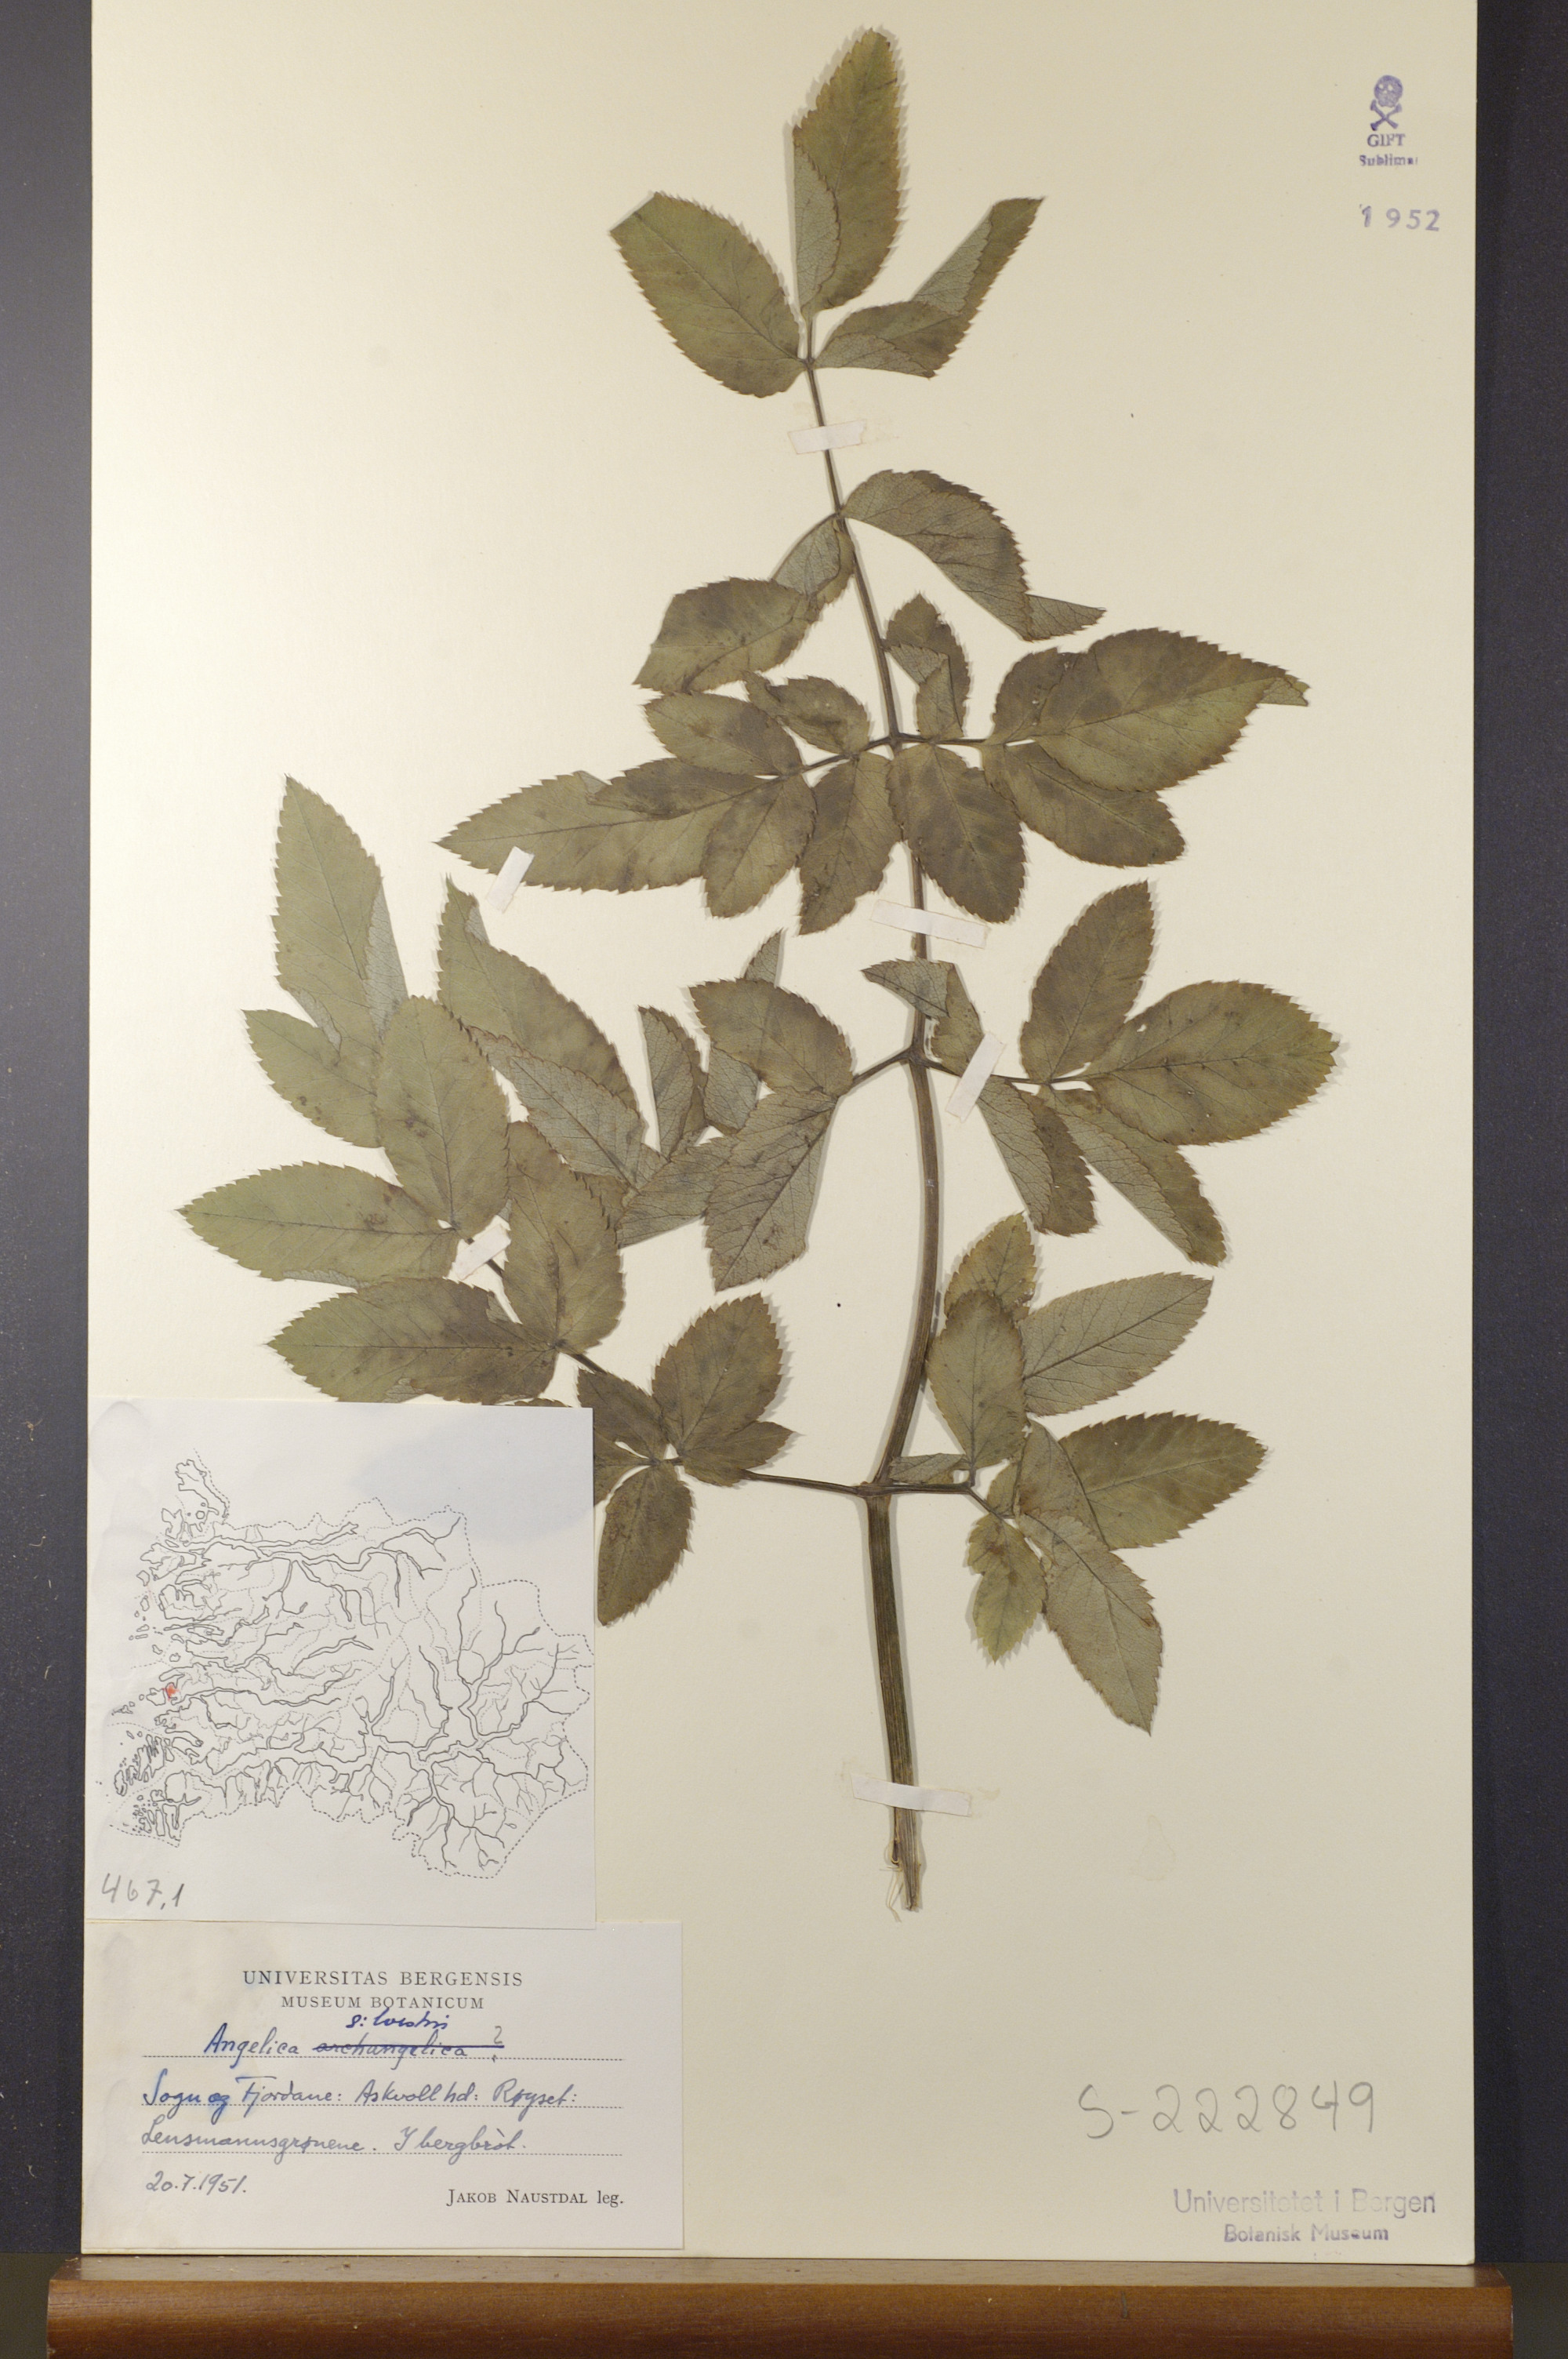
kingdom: Plantae
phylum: Tracheophyta
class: Magnoliopsida
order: Apiales
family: Apiaceae
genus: Angelica
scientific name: Angelica sylvestris
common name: Wild angelica
